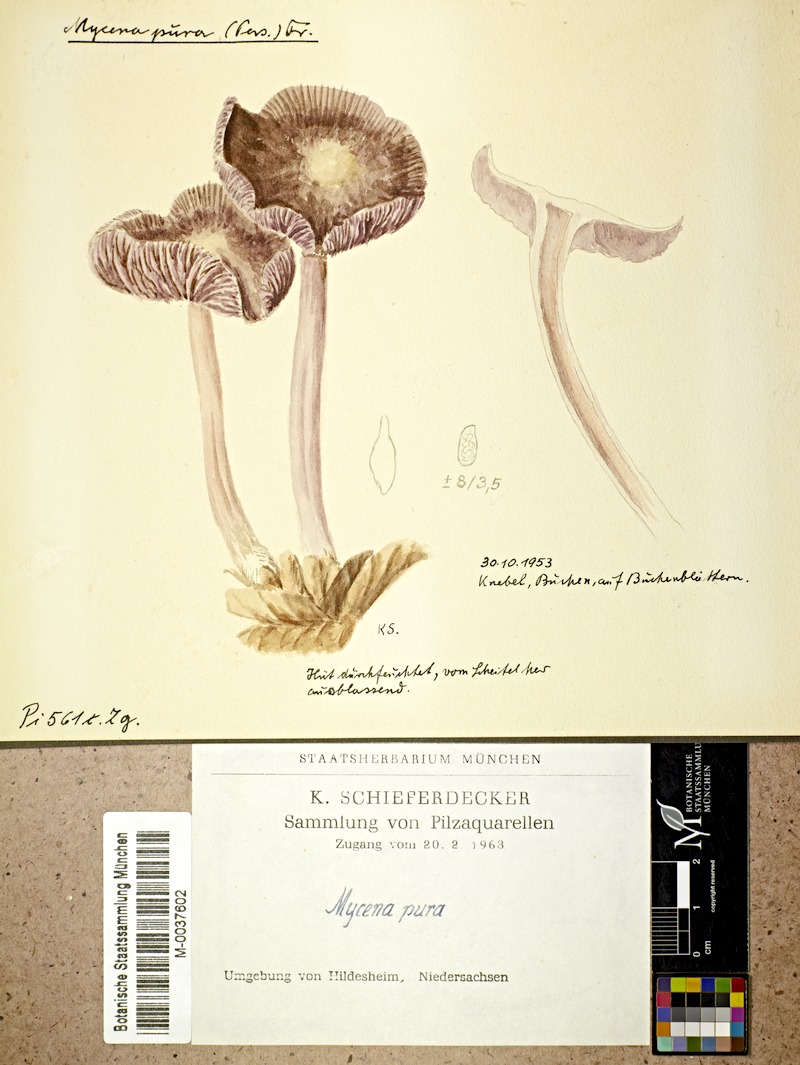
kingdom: Fungi
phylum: Basidiomycota
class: Agaricomycetes
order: Agaricales
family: Mycenaceae
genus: Mycena
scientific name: Mycena pura
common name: Lilac bonnet
